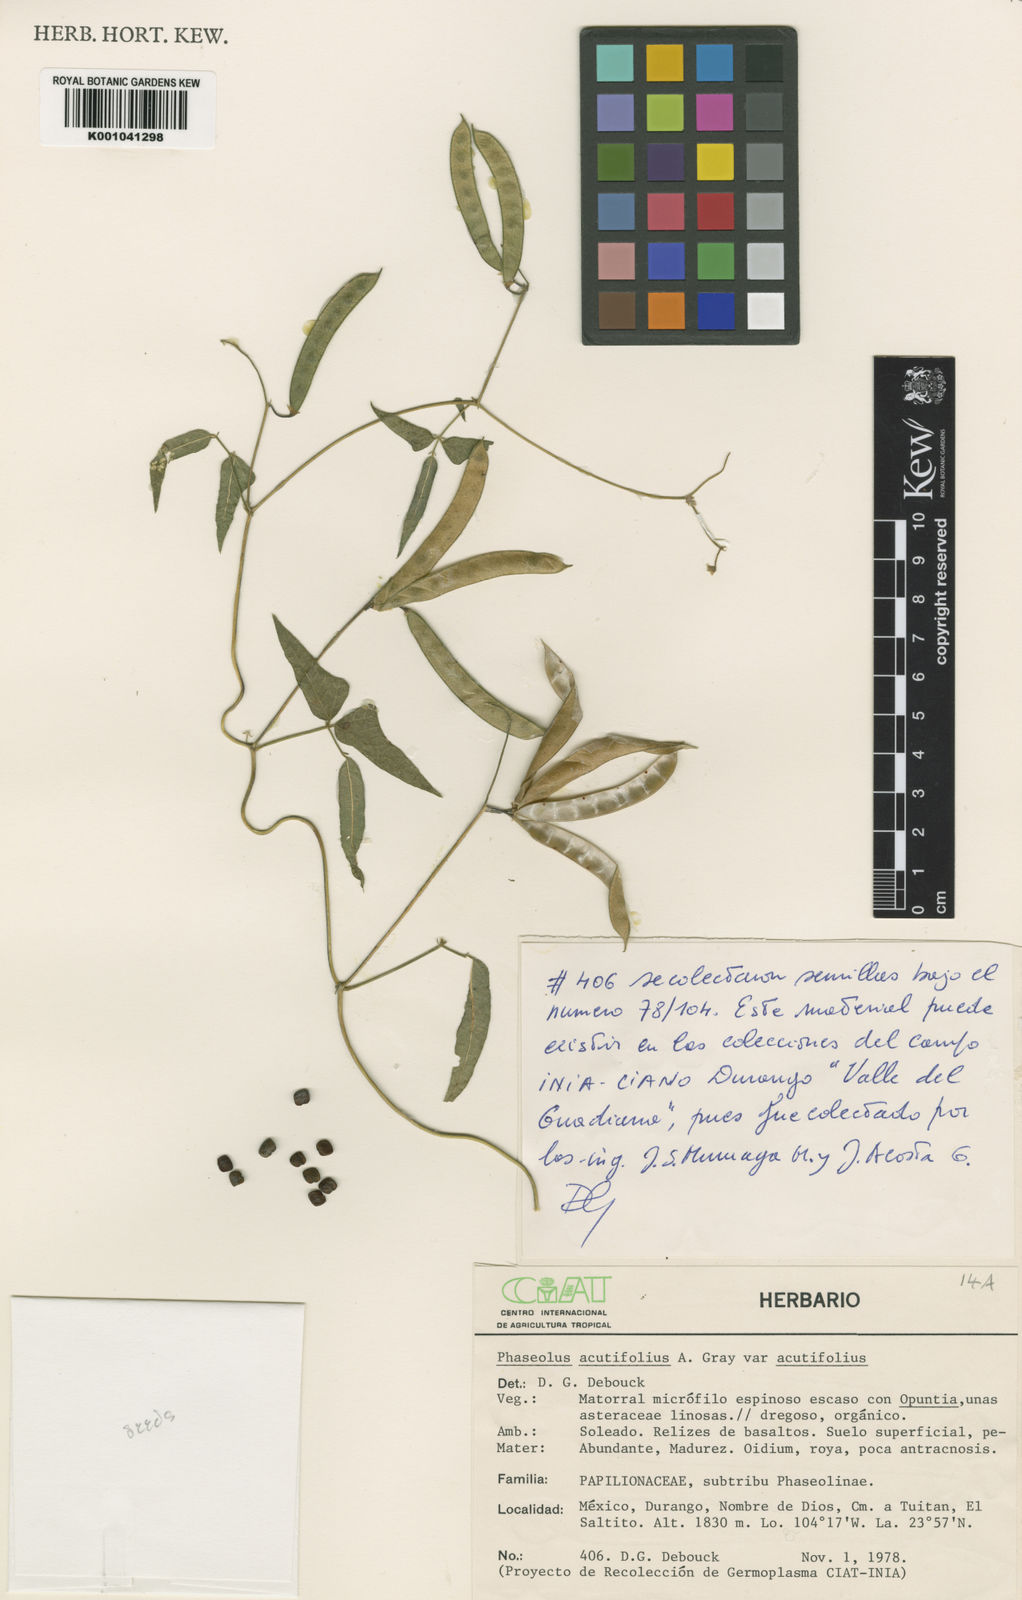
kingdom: Plantae
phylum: Tracheophyta
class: Magnoliopsida
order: Fabales
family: Fabaceae
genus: Phaseolus
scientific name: Phaseolus acutifolius
